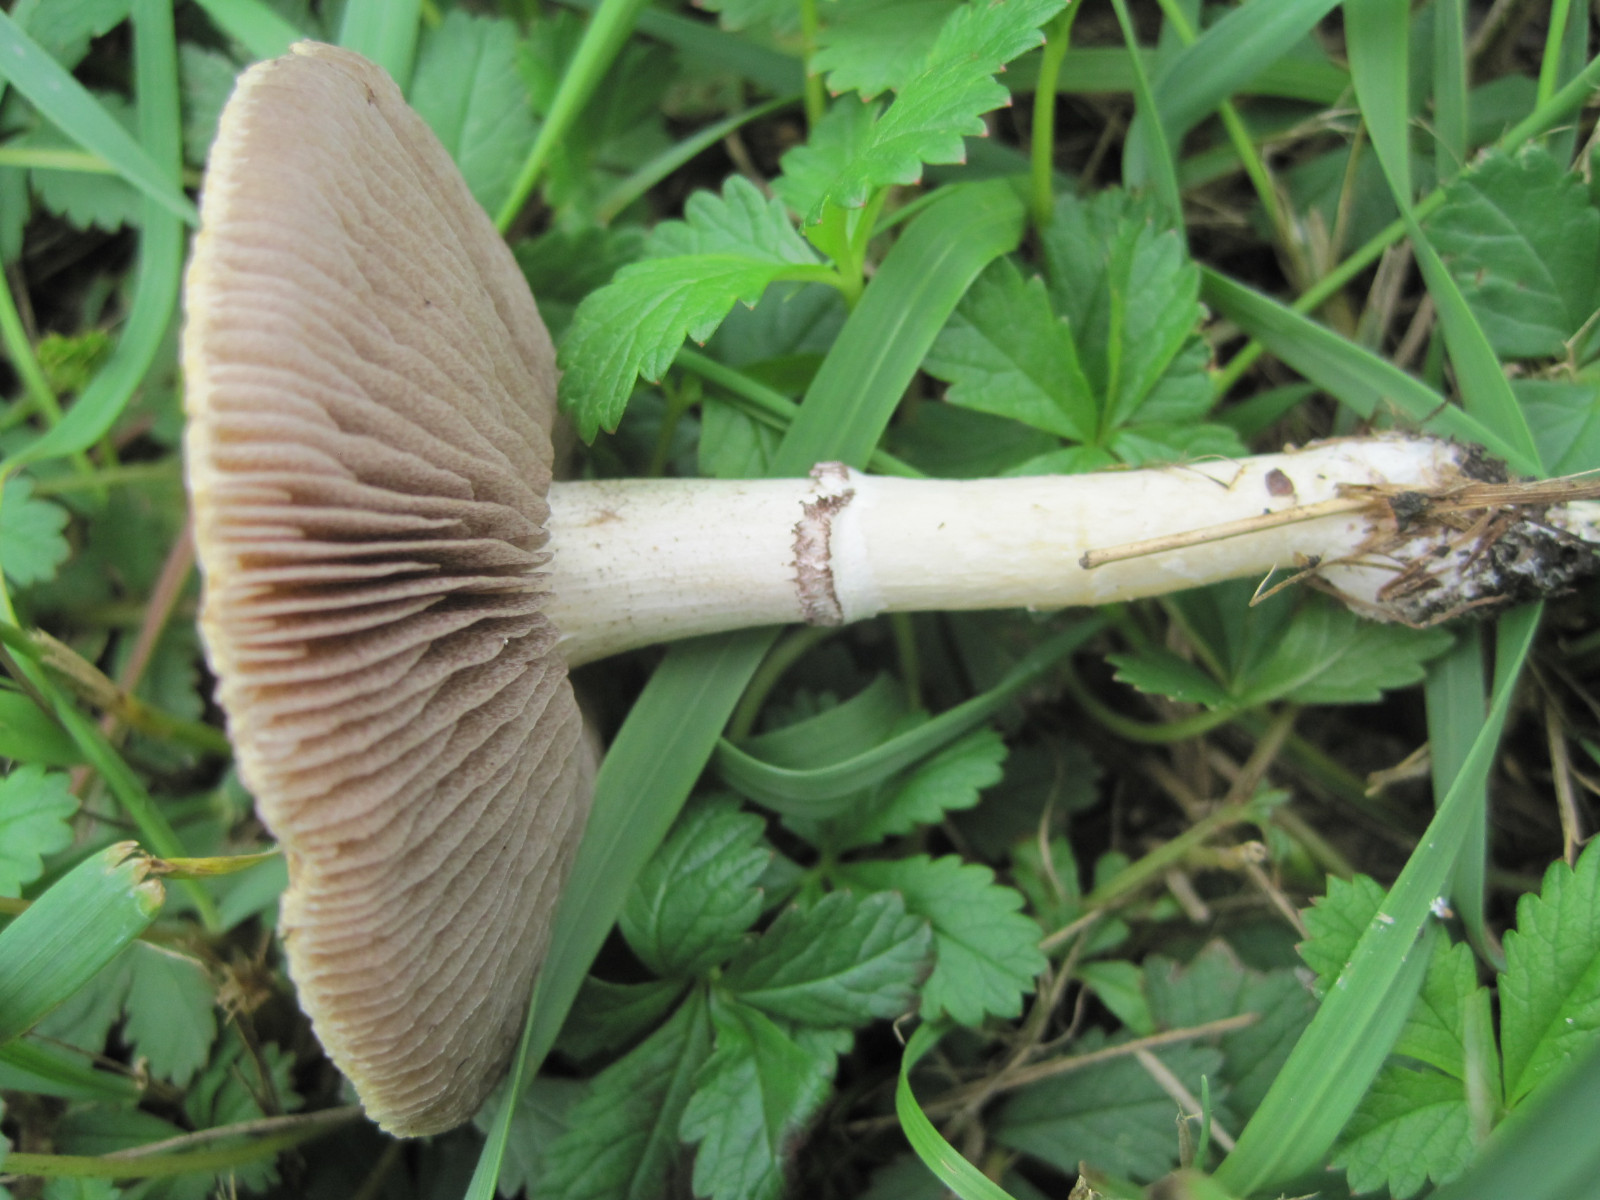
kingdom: Fungi
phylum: Basidiomycota
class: Agaricomycetes
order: Agaricales
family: Hymenogastraceae
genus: Psilocybe
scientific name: Psilocybe coronilla
